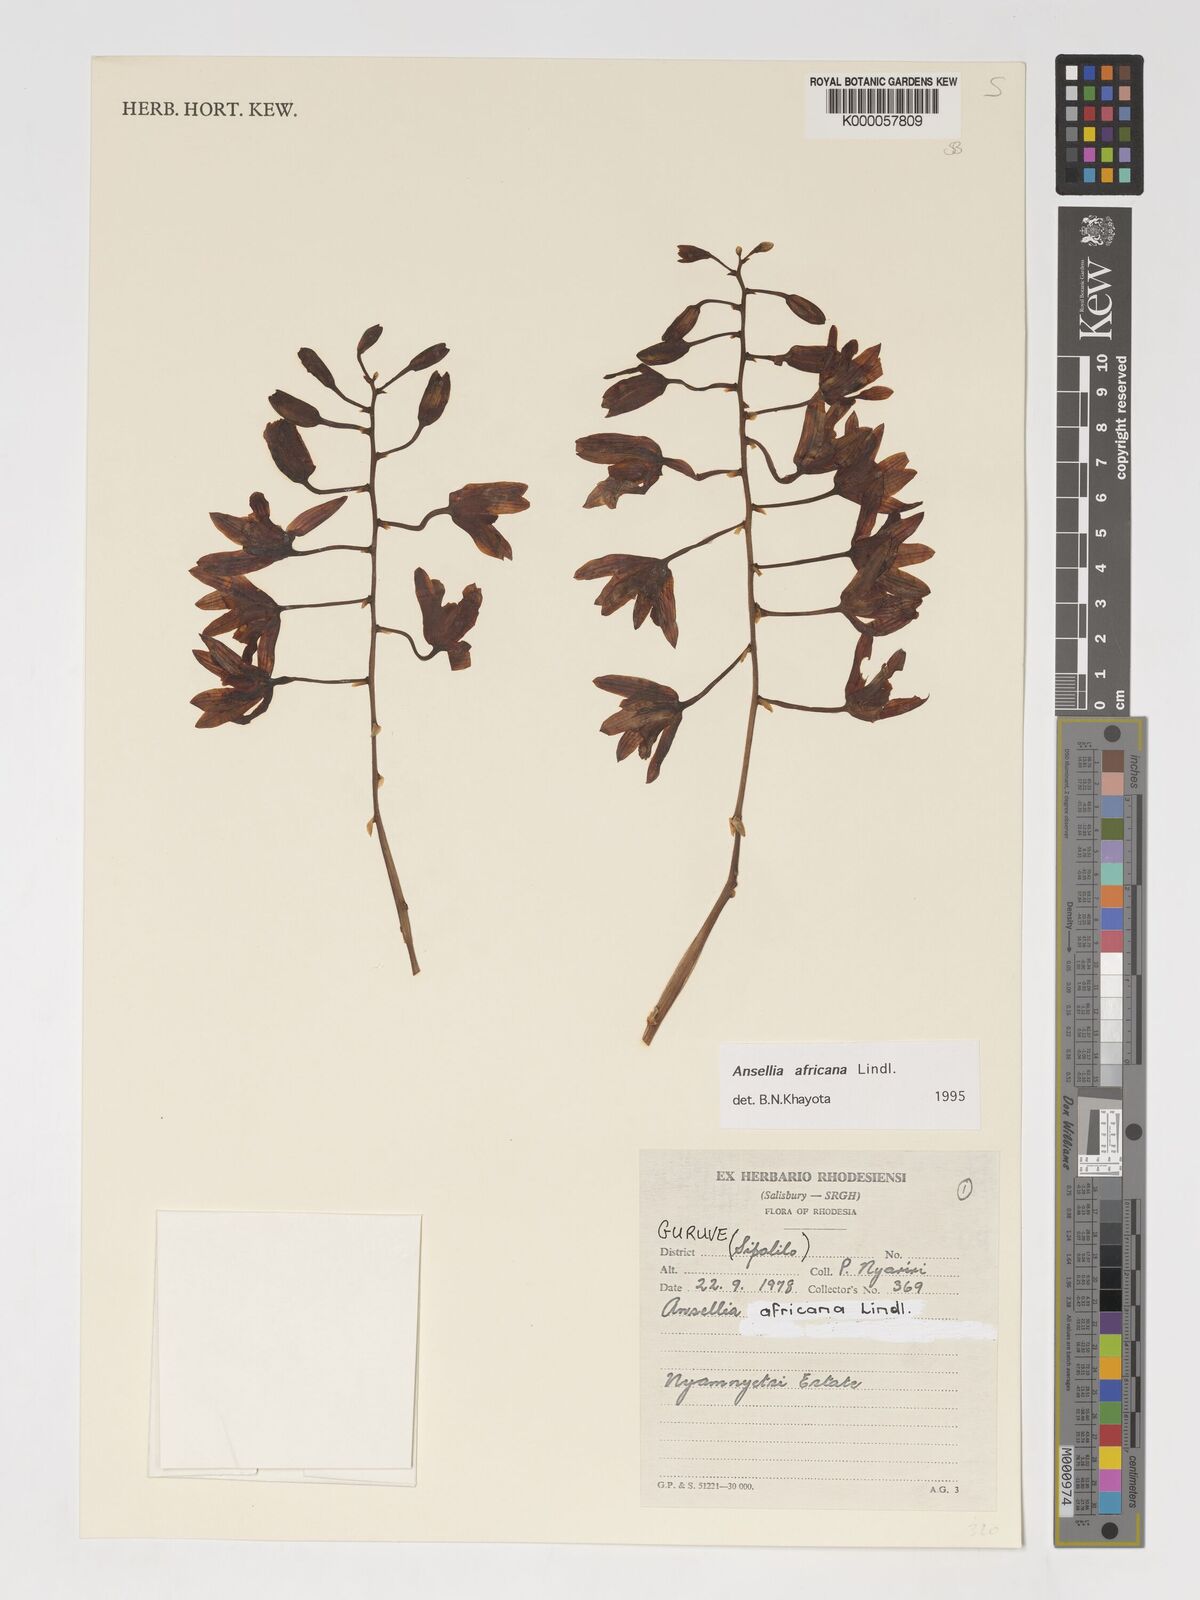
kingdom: Plantae
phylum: Tracheophyta
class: Liliopsida
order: Asparagales
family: Orchidaceae
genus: Ansellia
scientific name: Ansellia africana
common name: African ansellia
